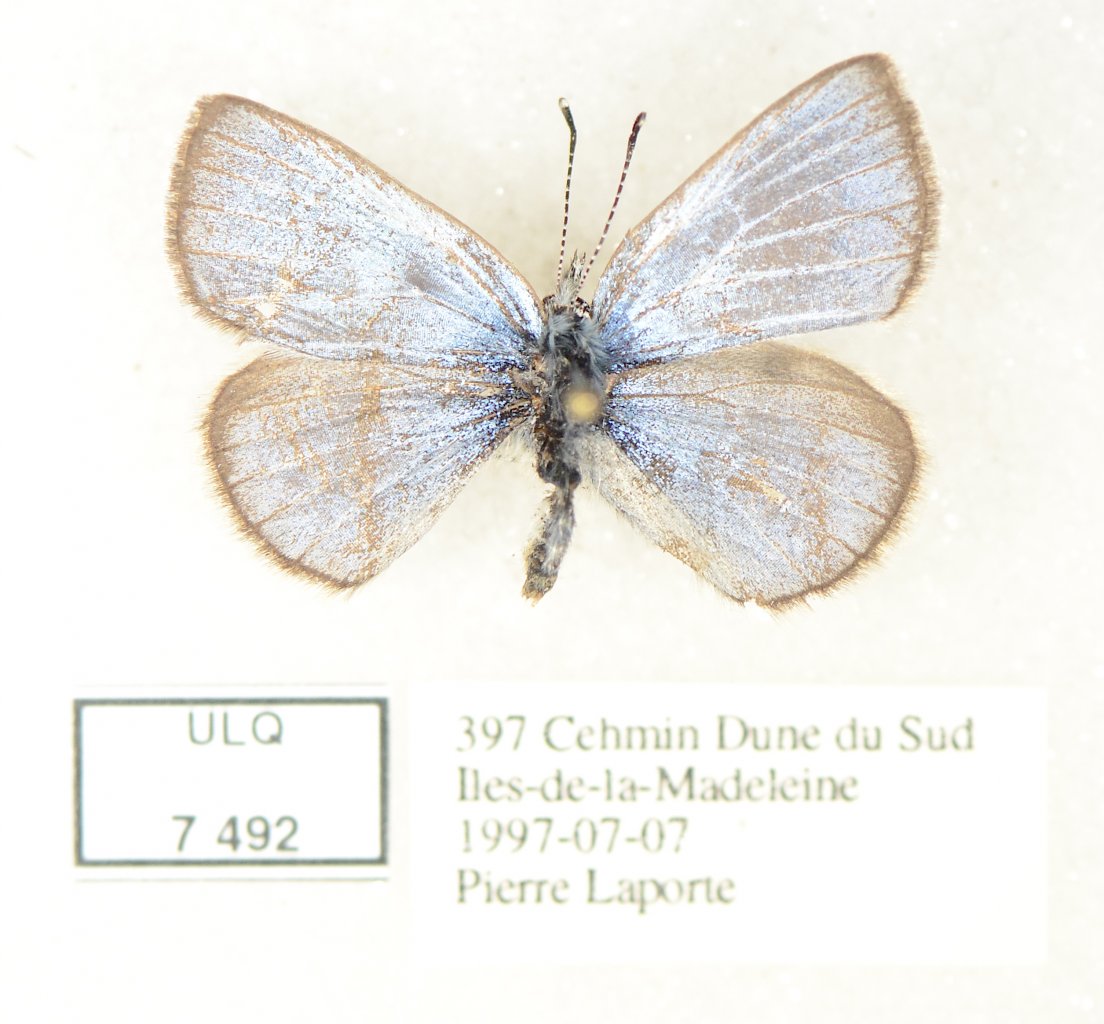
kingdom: Animalia
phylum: Arthropoda
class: Insecta
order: Lepidoptera
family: Lycaenidae
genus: Glaucopsyche
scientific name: Glaucopsyche lygdamus
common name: Silvery Blue
